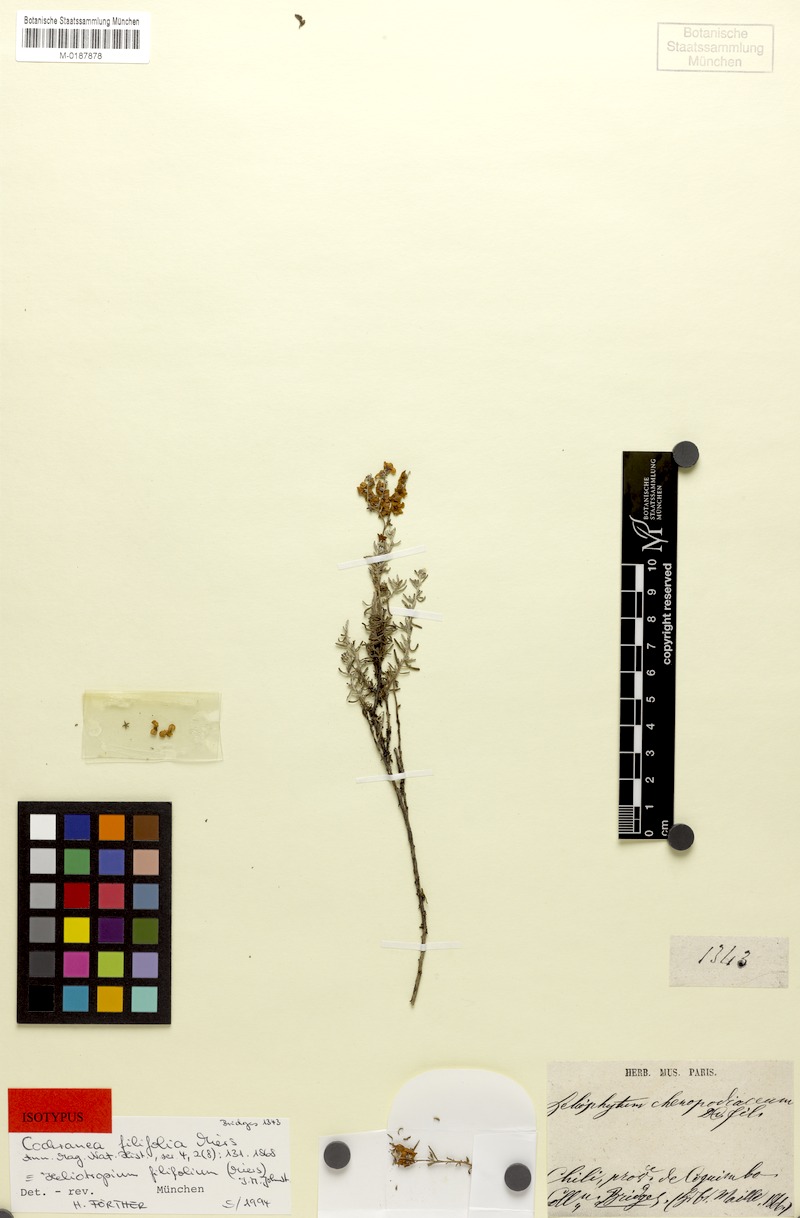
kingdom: Plantae
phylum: Tracheophyta
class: Magnoliopsida
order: Boraginales
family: Heliotropiaceae
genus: Heliotropium
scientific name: Heliotropium filifolium
